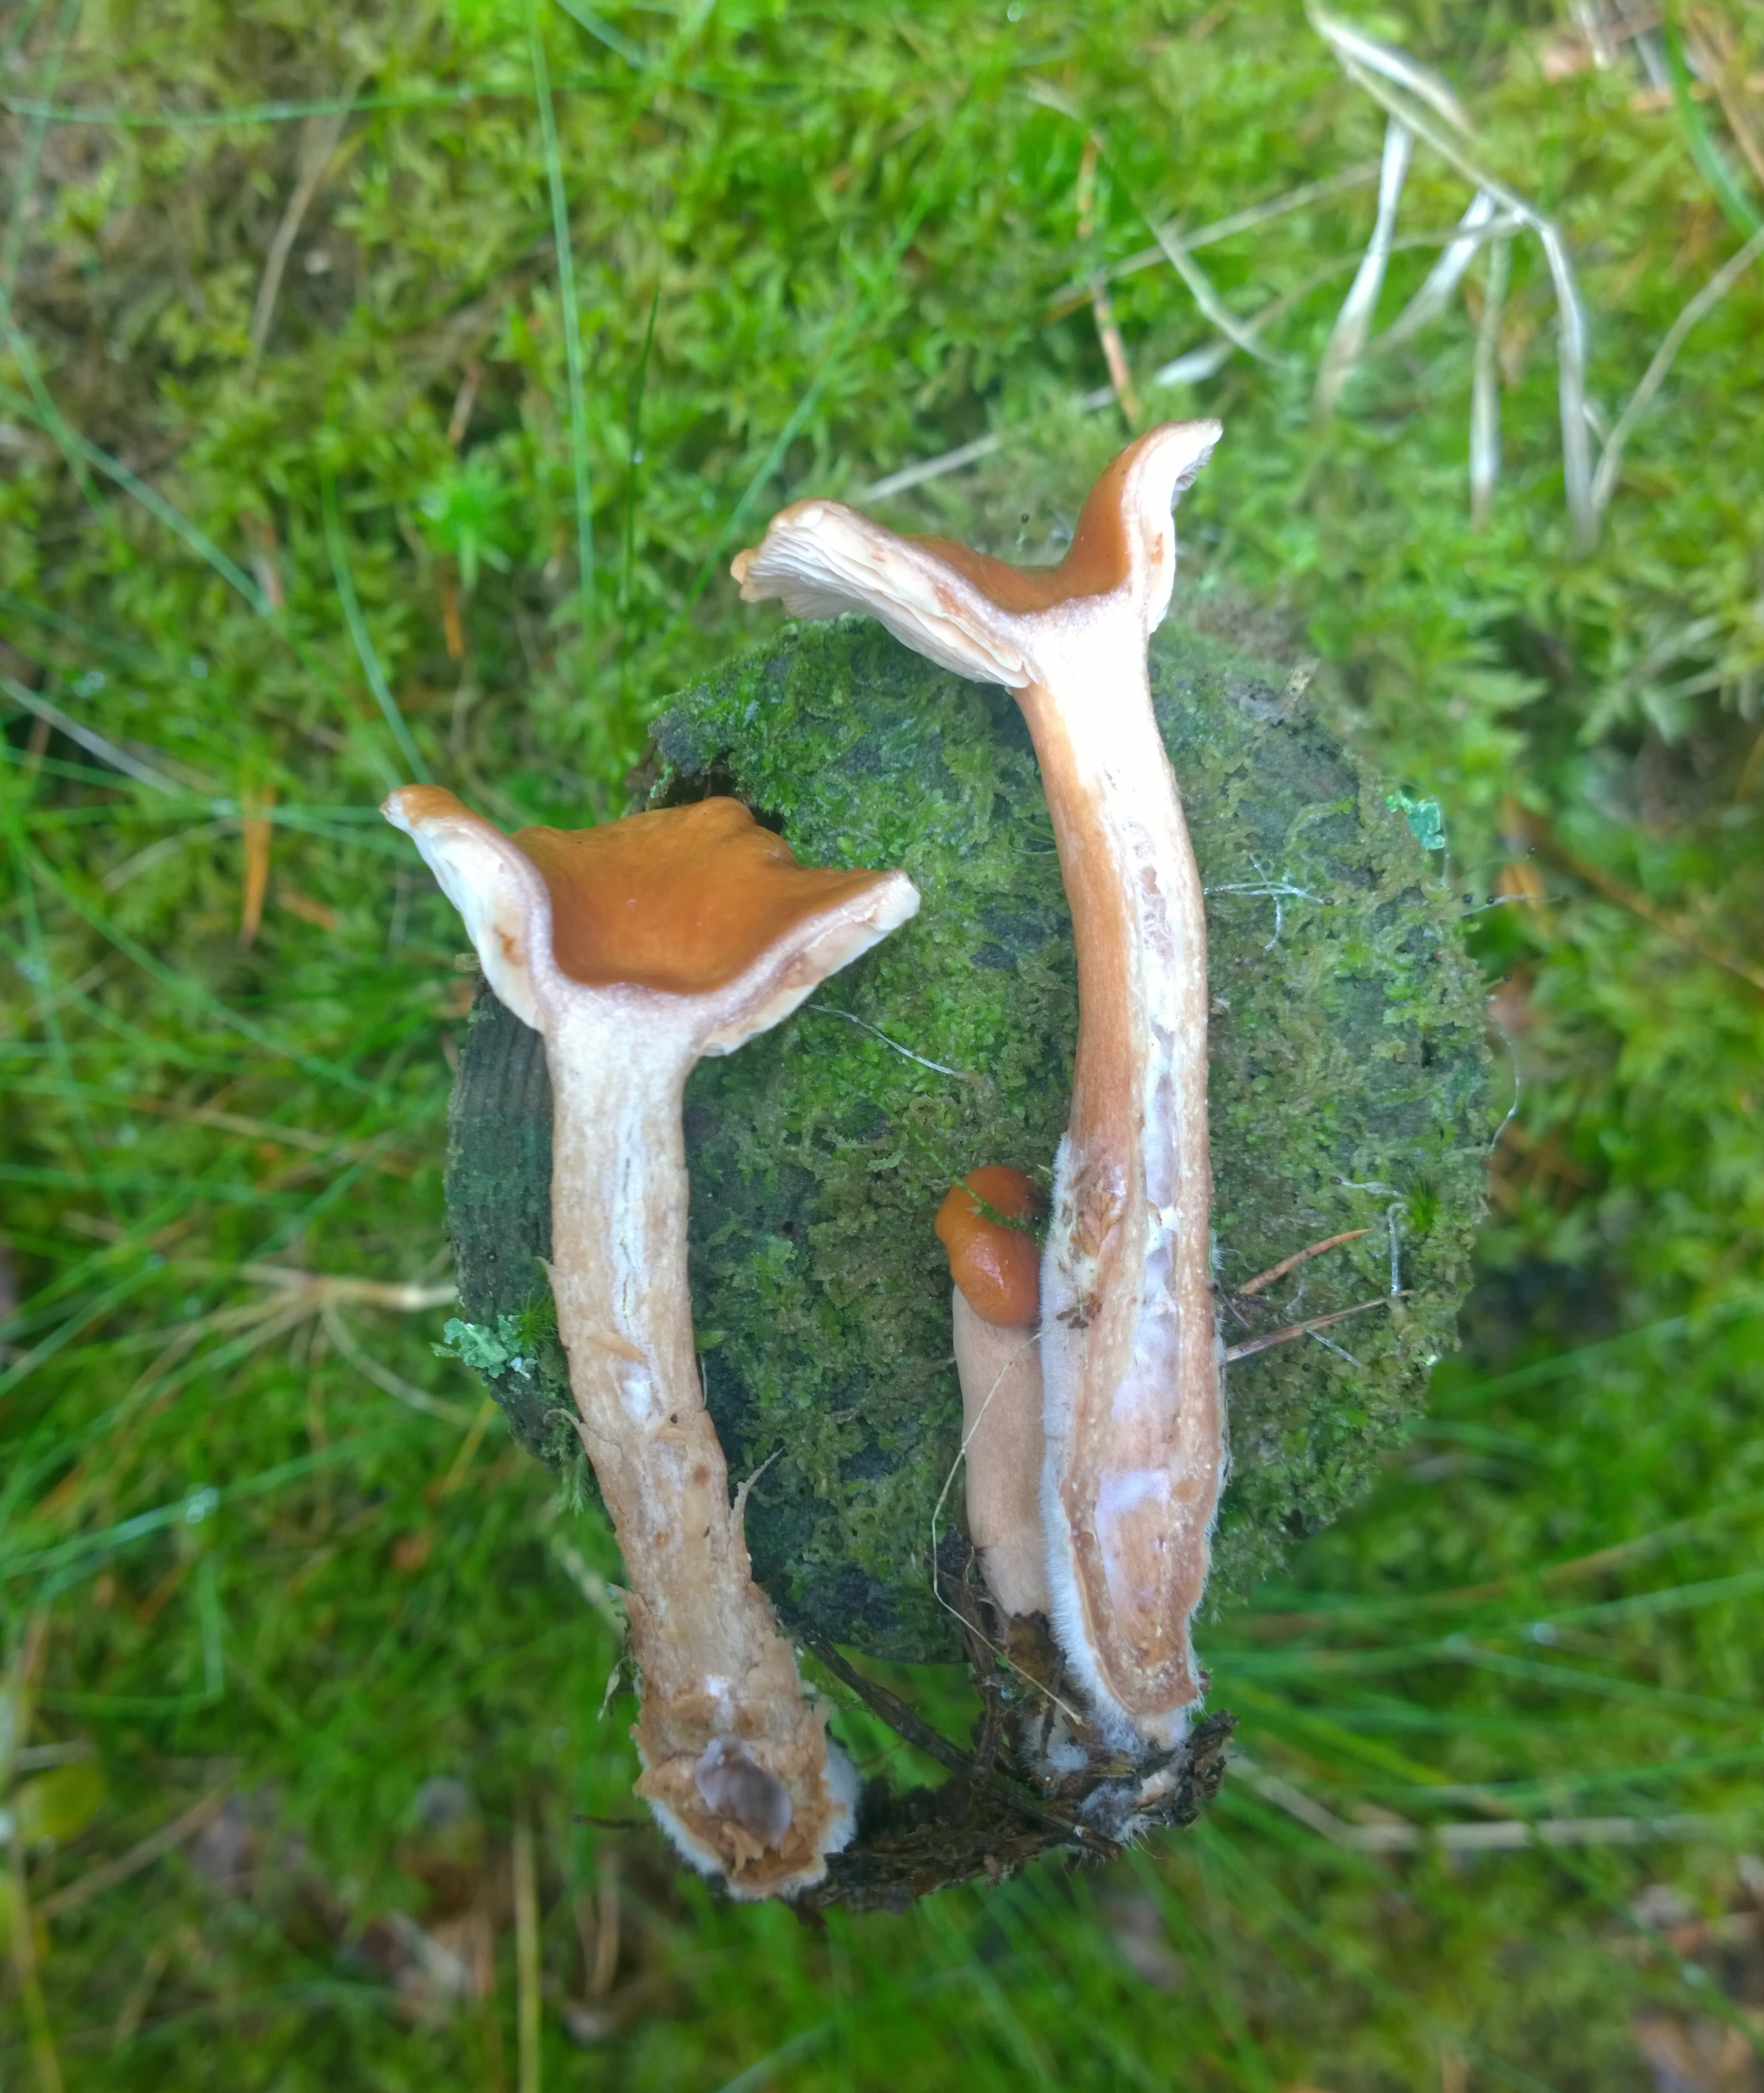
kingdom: Fungi
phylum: Basidiomycota
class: Agaricomycetes
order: Russulales
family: Russulaceae
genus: Lactarius
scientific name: Lactarius lacunarum
